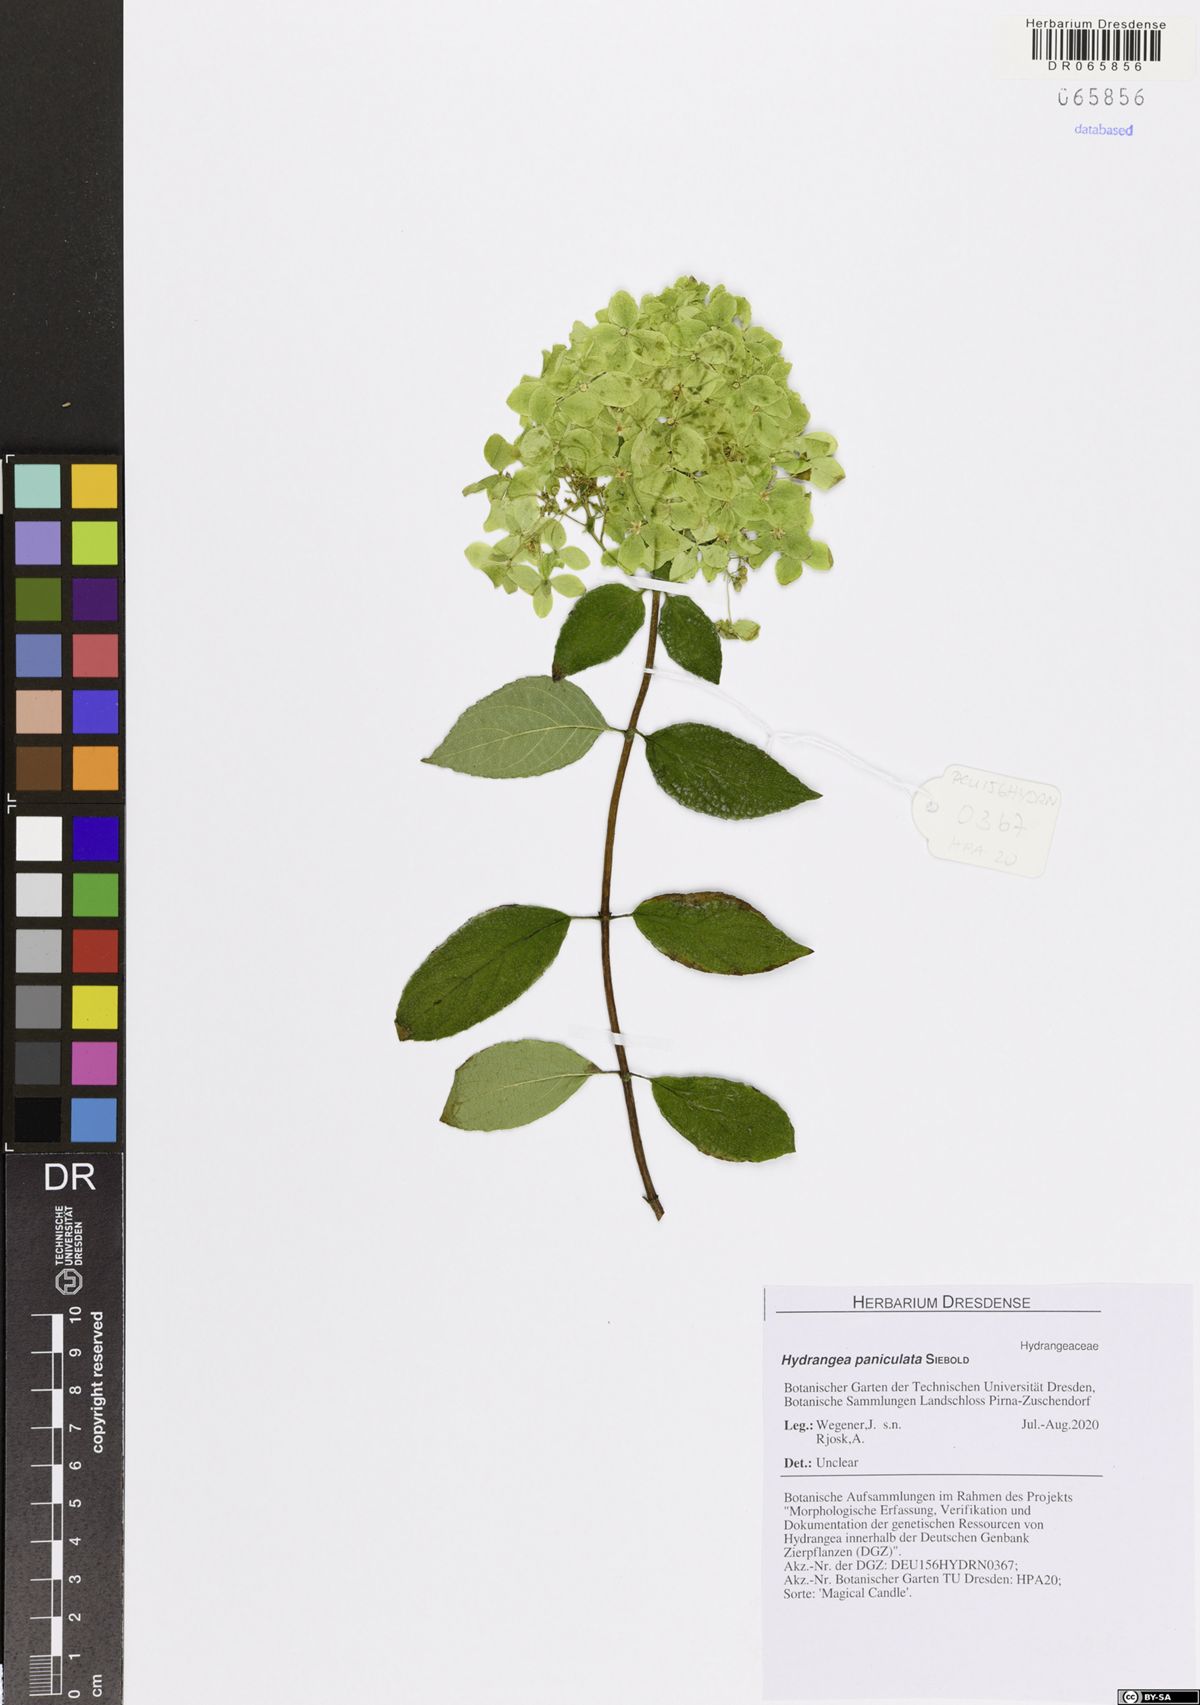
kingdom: Plantae
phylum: Tracheophyta
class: Magnoliopsida
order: Cornales
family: Hydrangeaceae
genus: Hydrangea
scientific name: Hydrangea paniculata
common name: Panicled hydrangea
